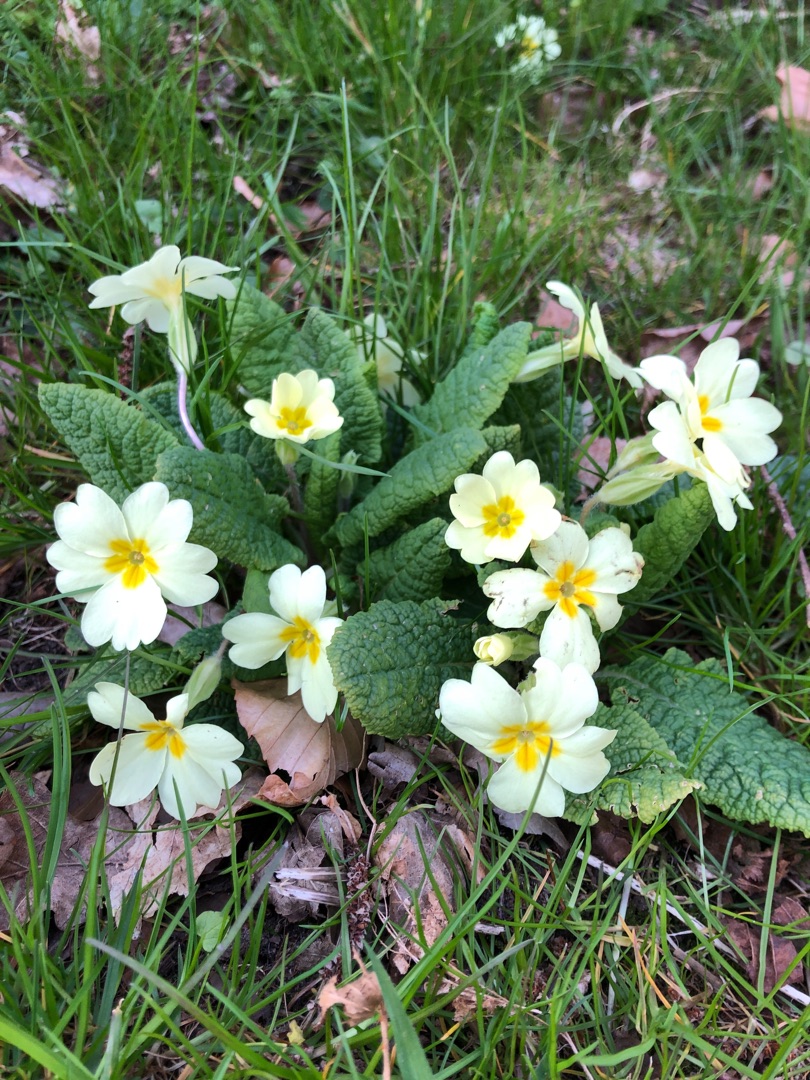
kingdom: Plantae
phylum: Tracheophyta
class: Magnoliopsida
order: Ericales
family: Primulaceae
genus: Primula
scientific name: Primula vulgaris
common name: Storblomstret kodriver
